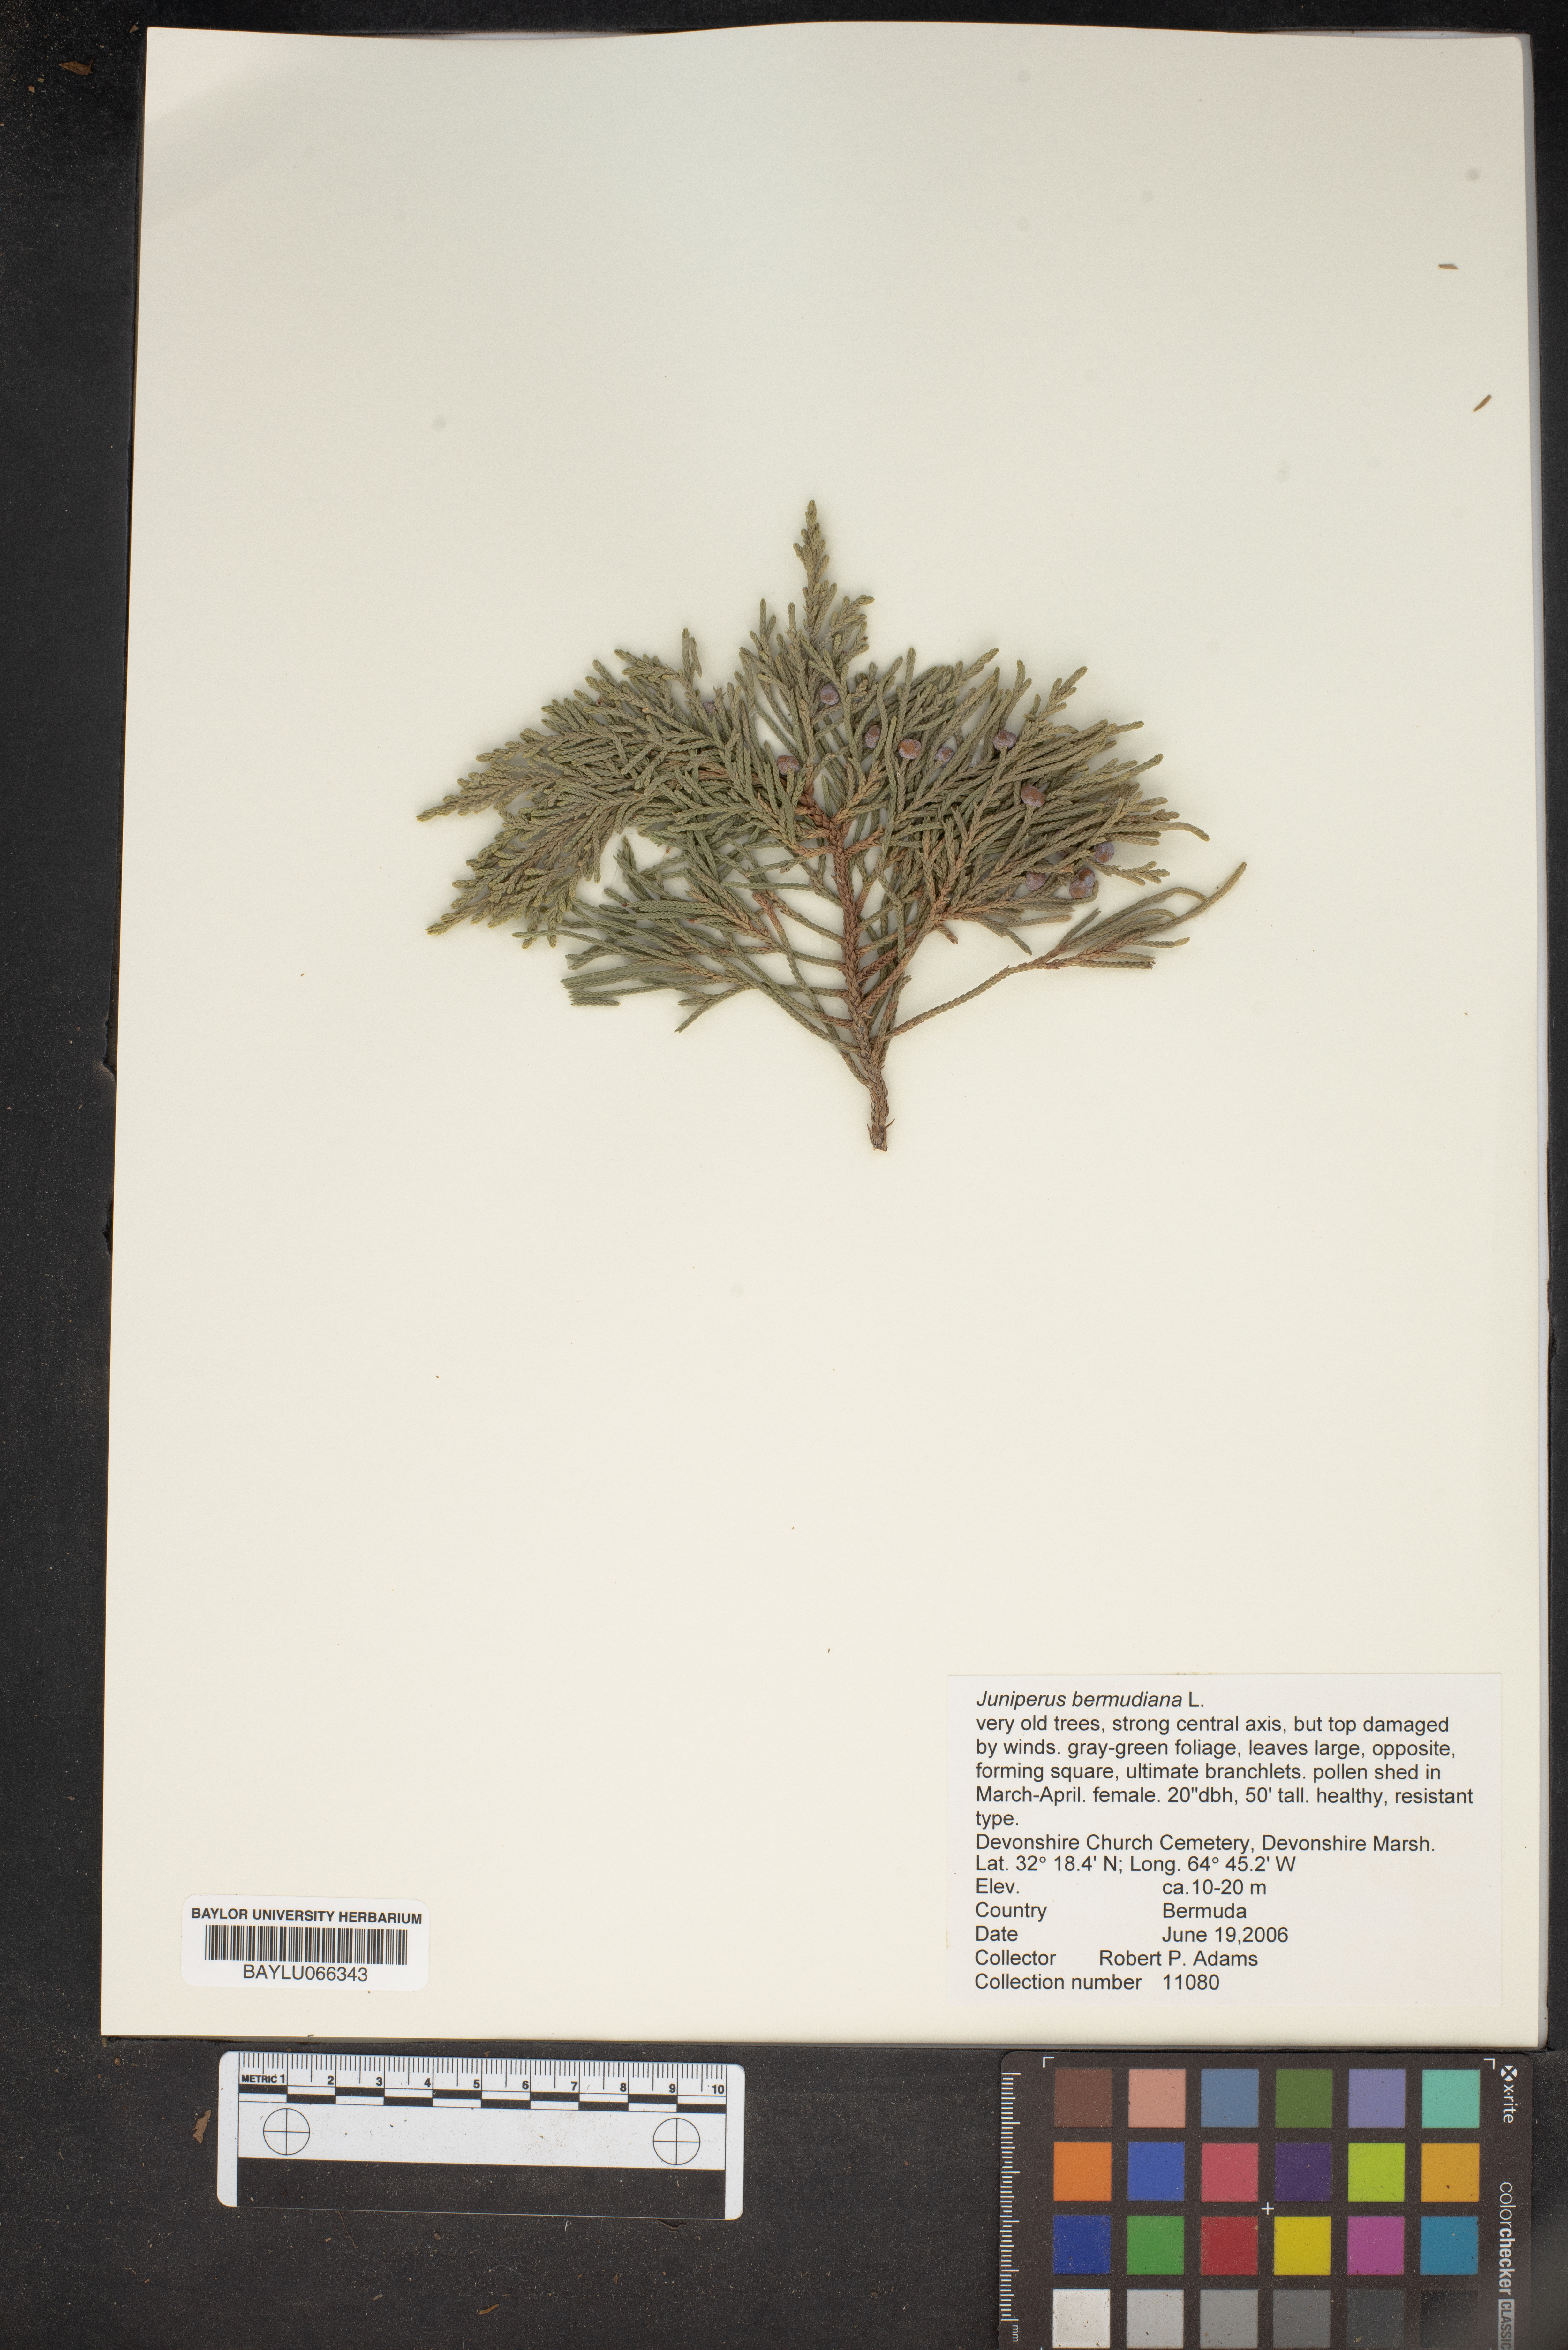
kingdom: Plantae
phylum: Tracheophyta
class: Pinopsida
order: Pinales
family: Cupressaceae
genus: Juniperus
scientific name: Juniperus bermudiana
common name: Bermuda juniper
